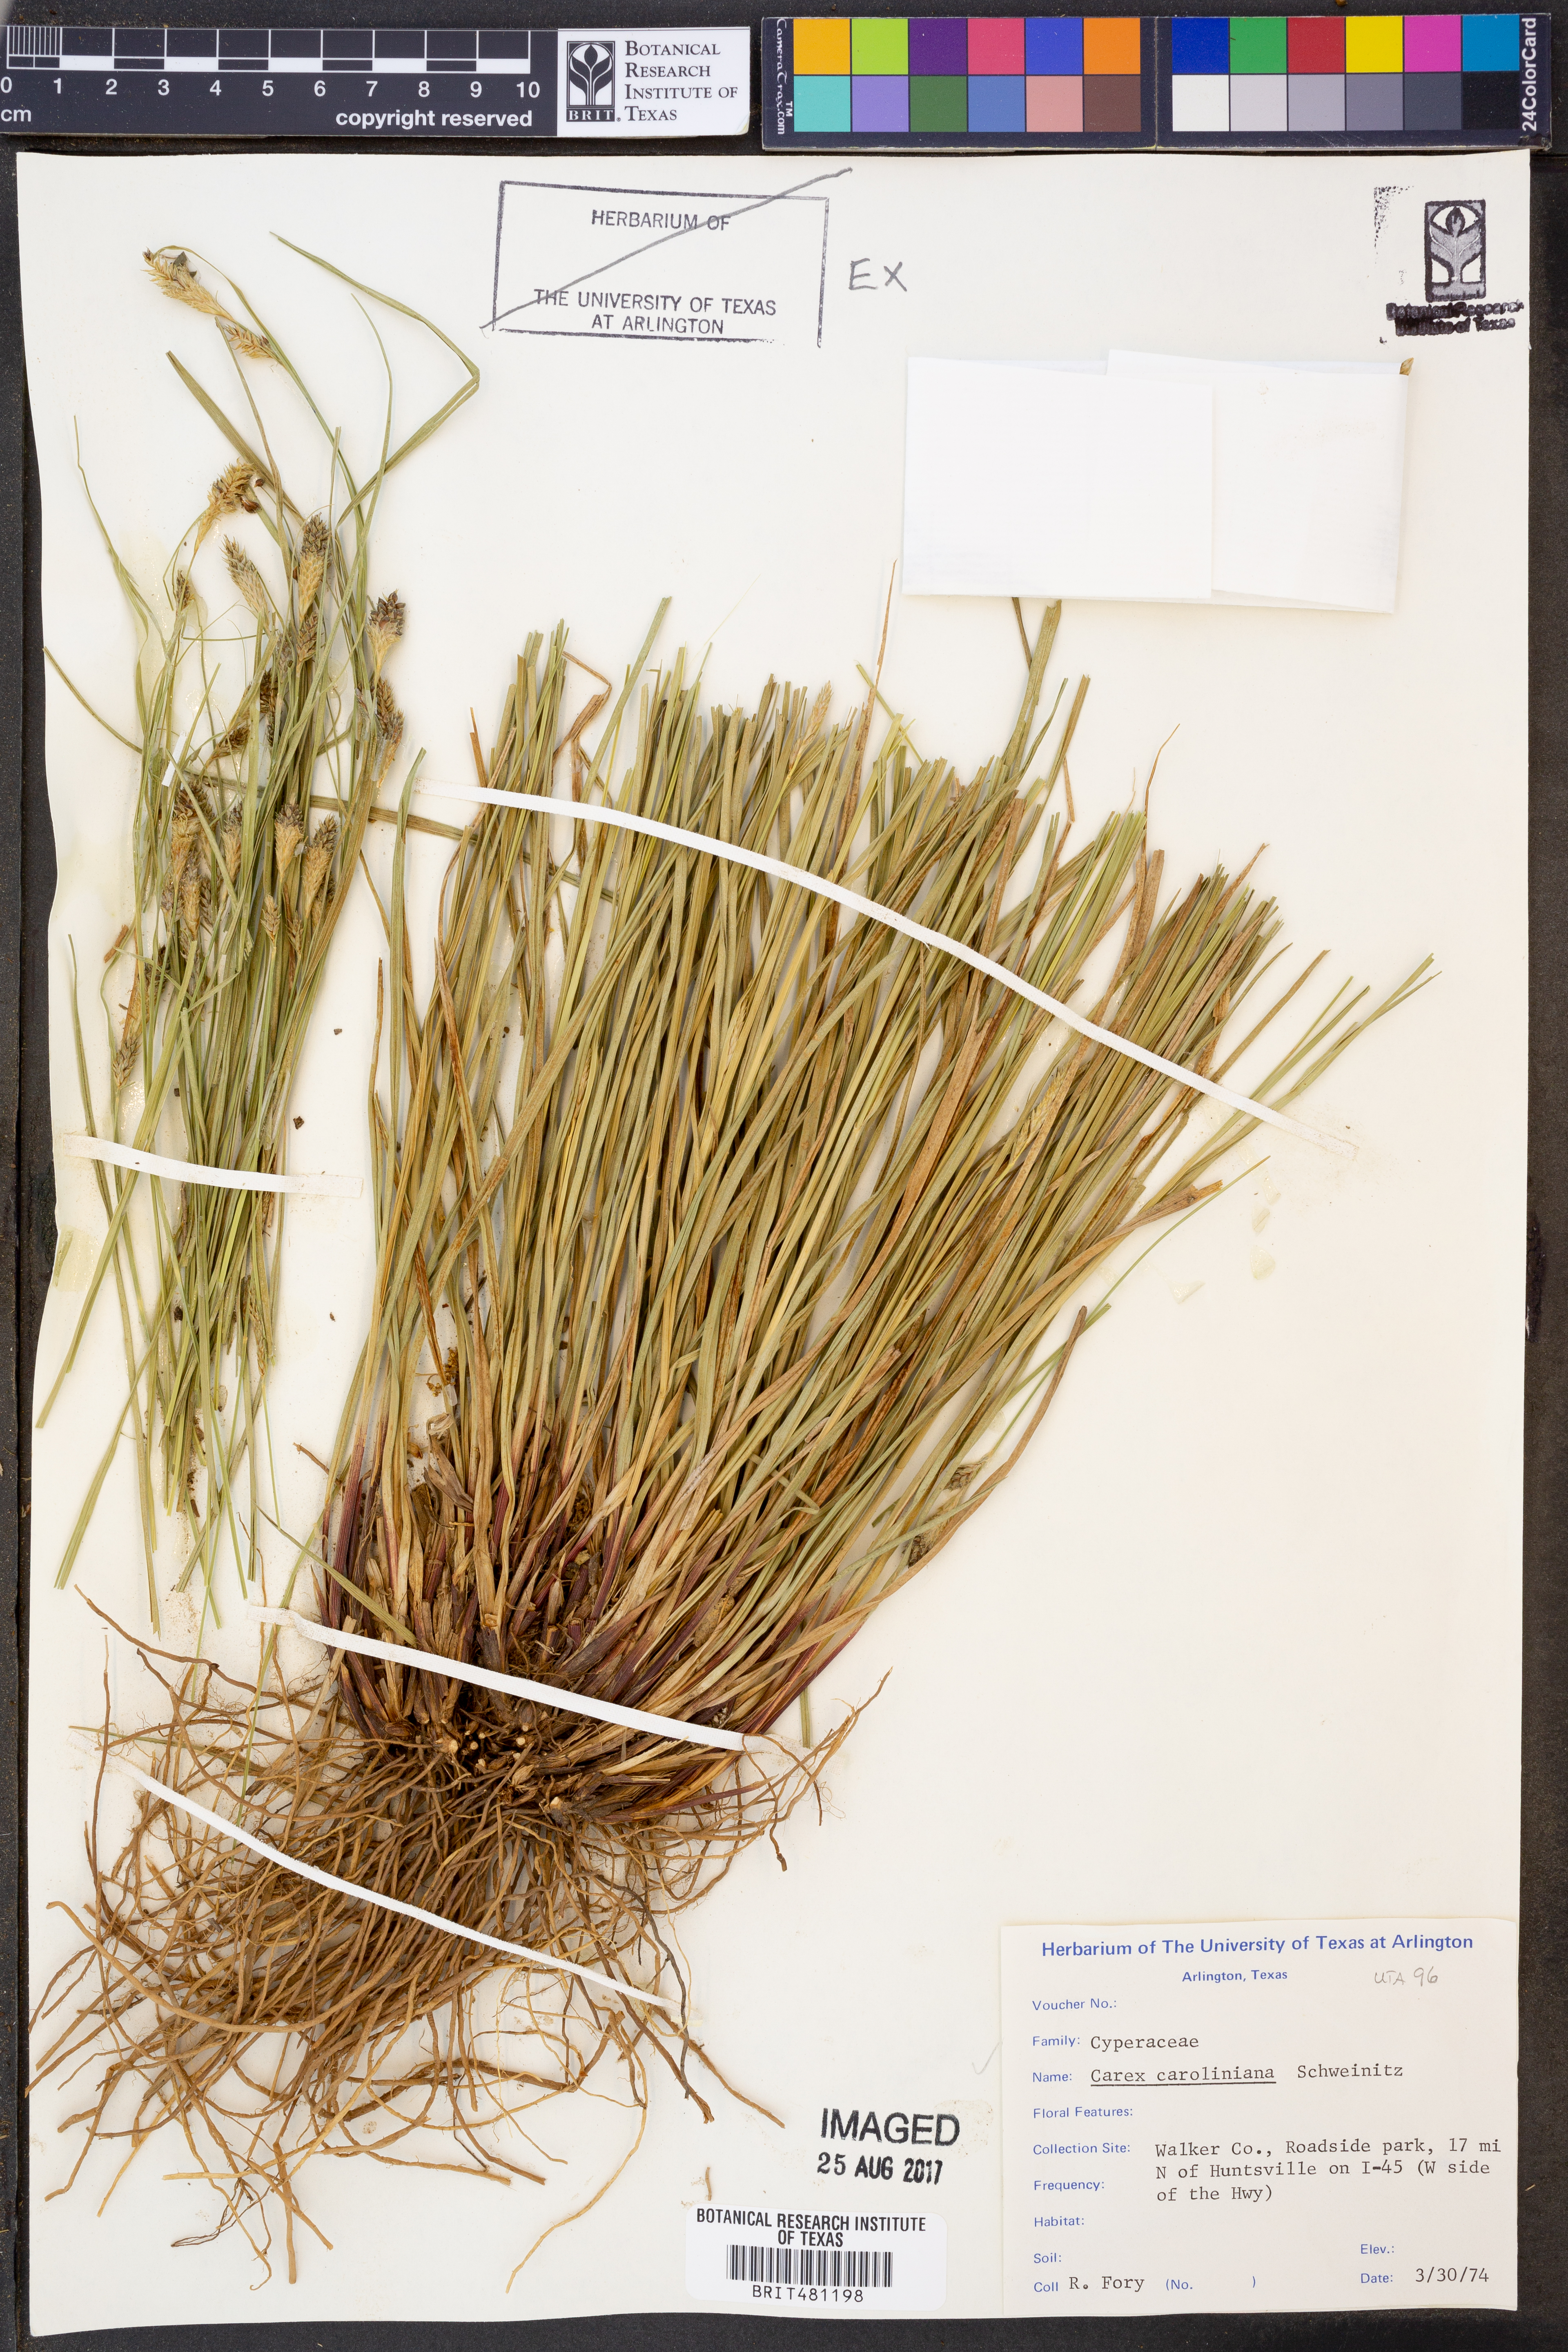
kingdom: Plantae
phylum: Tracheophyta
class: Liliopsida
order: Poales
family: Cyperaceae
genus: Carex
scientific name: Carex caroliniana
